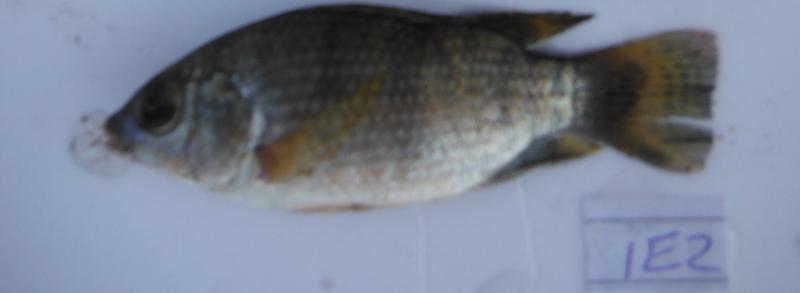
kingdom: Animalia
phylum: Chordata
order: Perciformes
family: Cichlidae
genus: Oreochromis
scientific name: Oreochromis urolepis
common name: Wami tilapia
